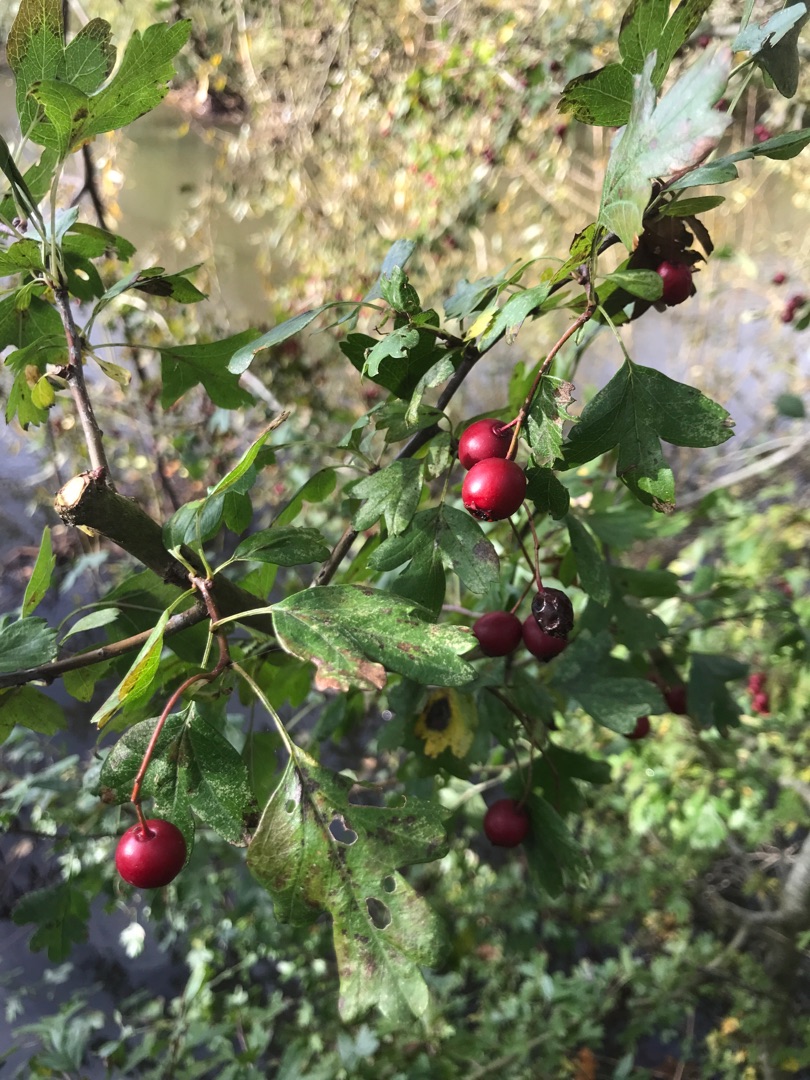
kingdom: Plantae
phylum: Tracheophyta
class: Magnoliopsida
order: Rosales
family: Rosaceae
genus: Crataegus
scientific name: Crataegus monogyna
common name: Engriflet hvidtjørn
